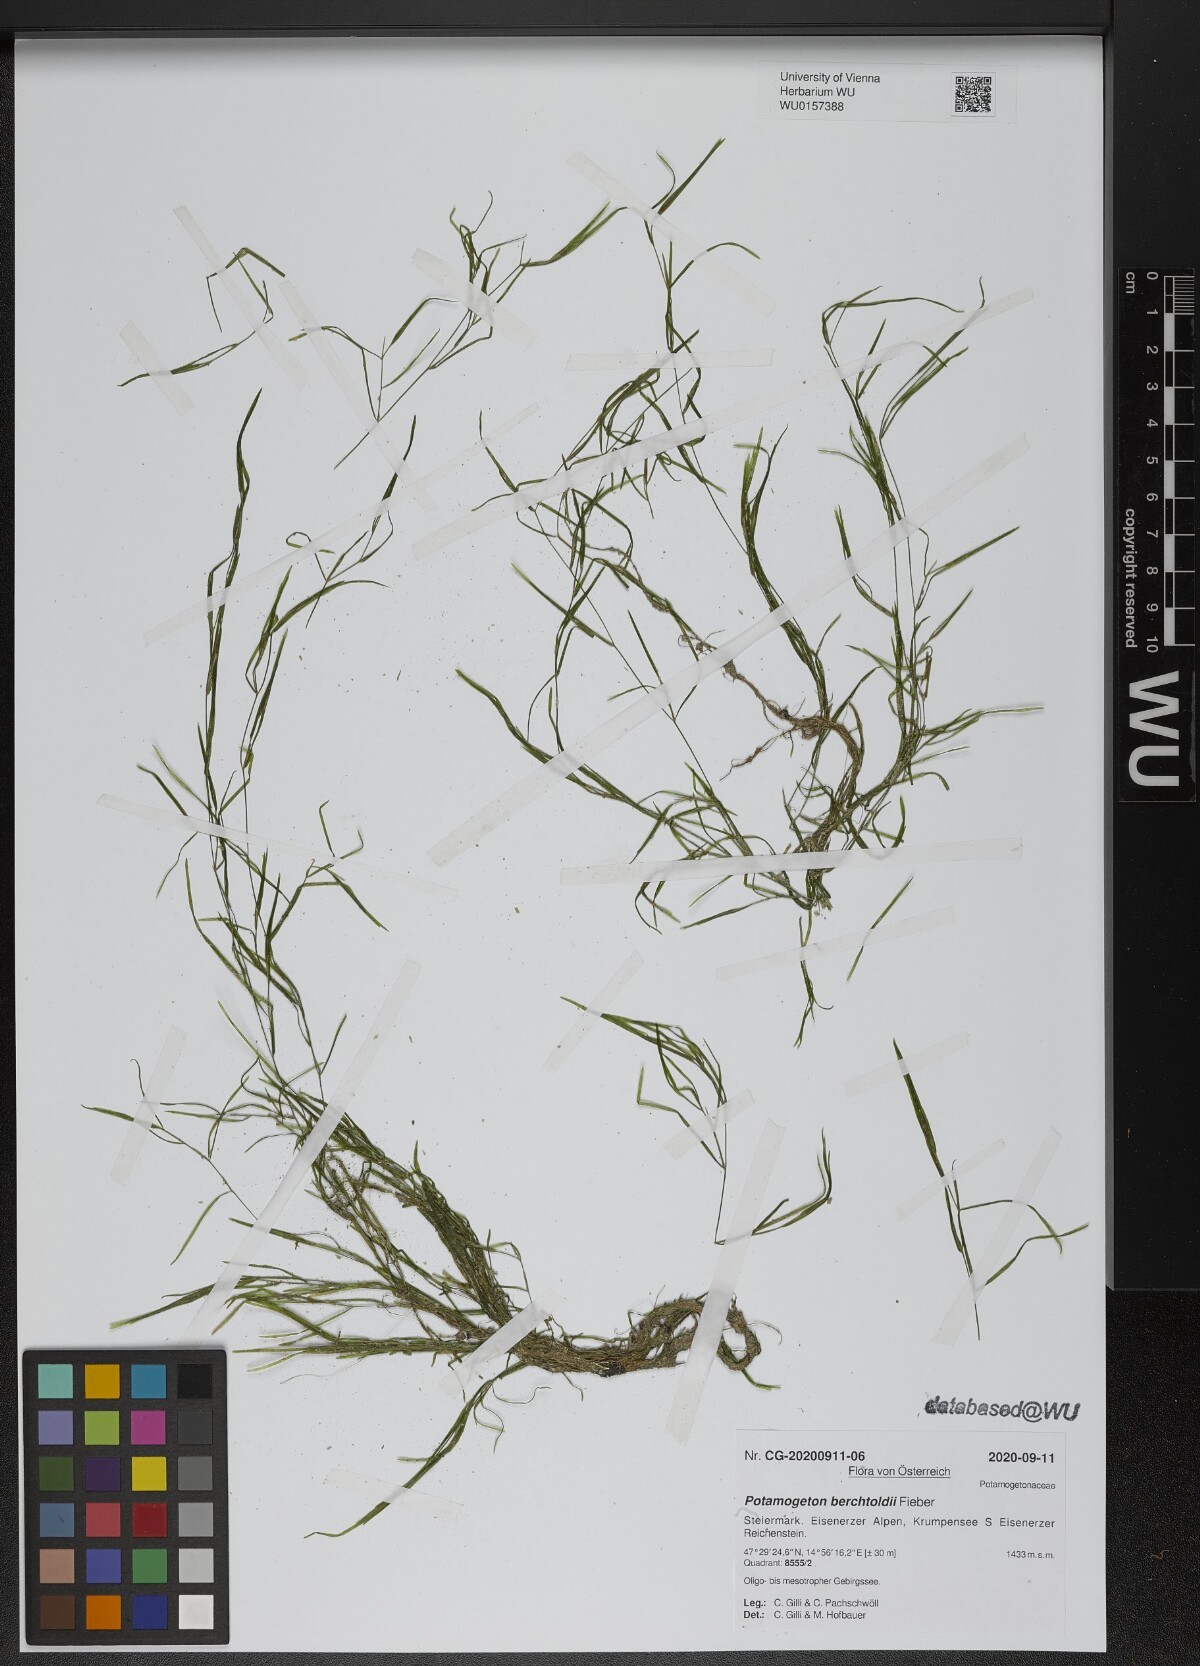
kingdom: Plantae
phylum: Tracheophyta
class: Liliopsida
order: Alismatales
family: Potamogetonaceae
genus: Potamogeton
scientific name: Potamogeton berchtoldii
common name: Small pondweed
